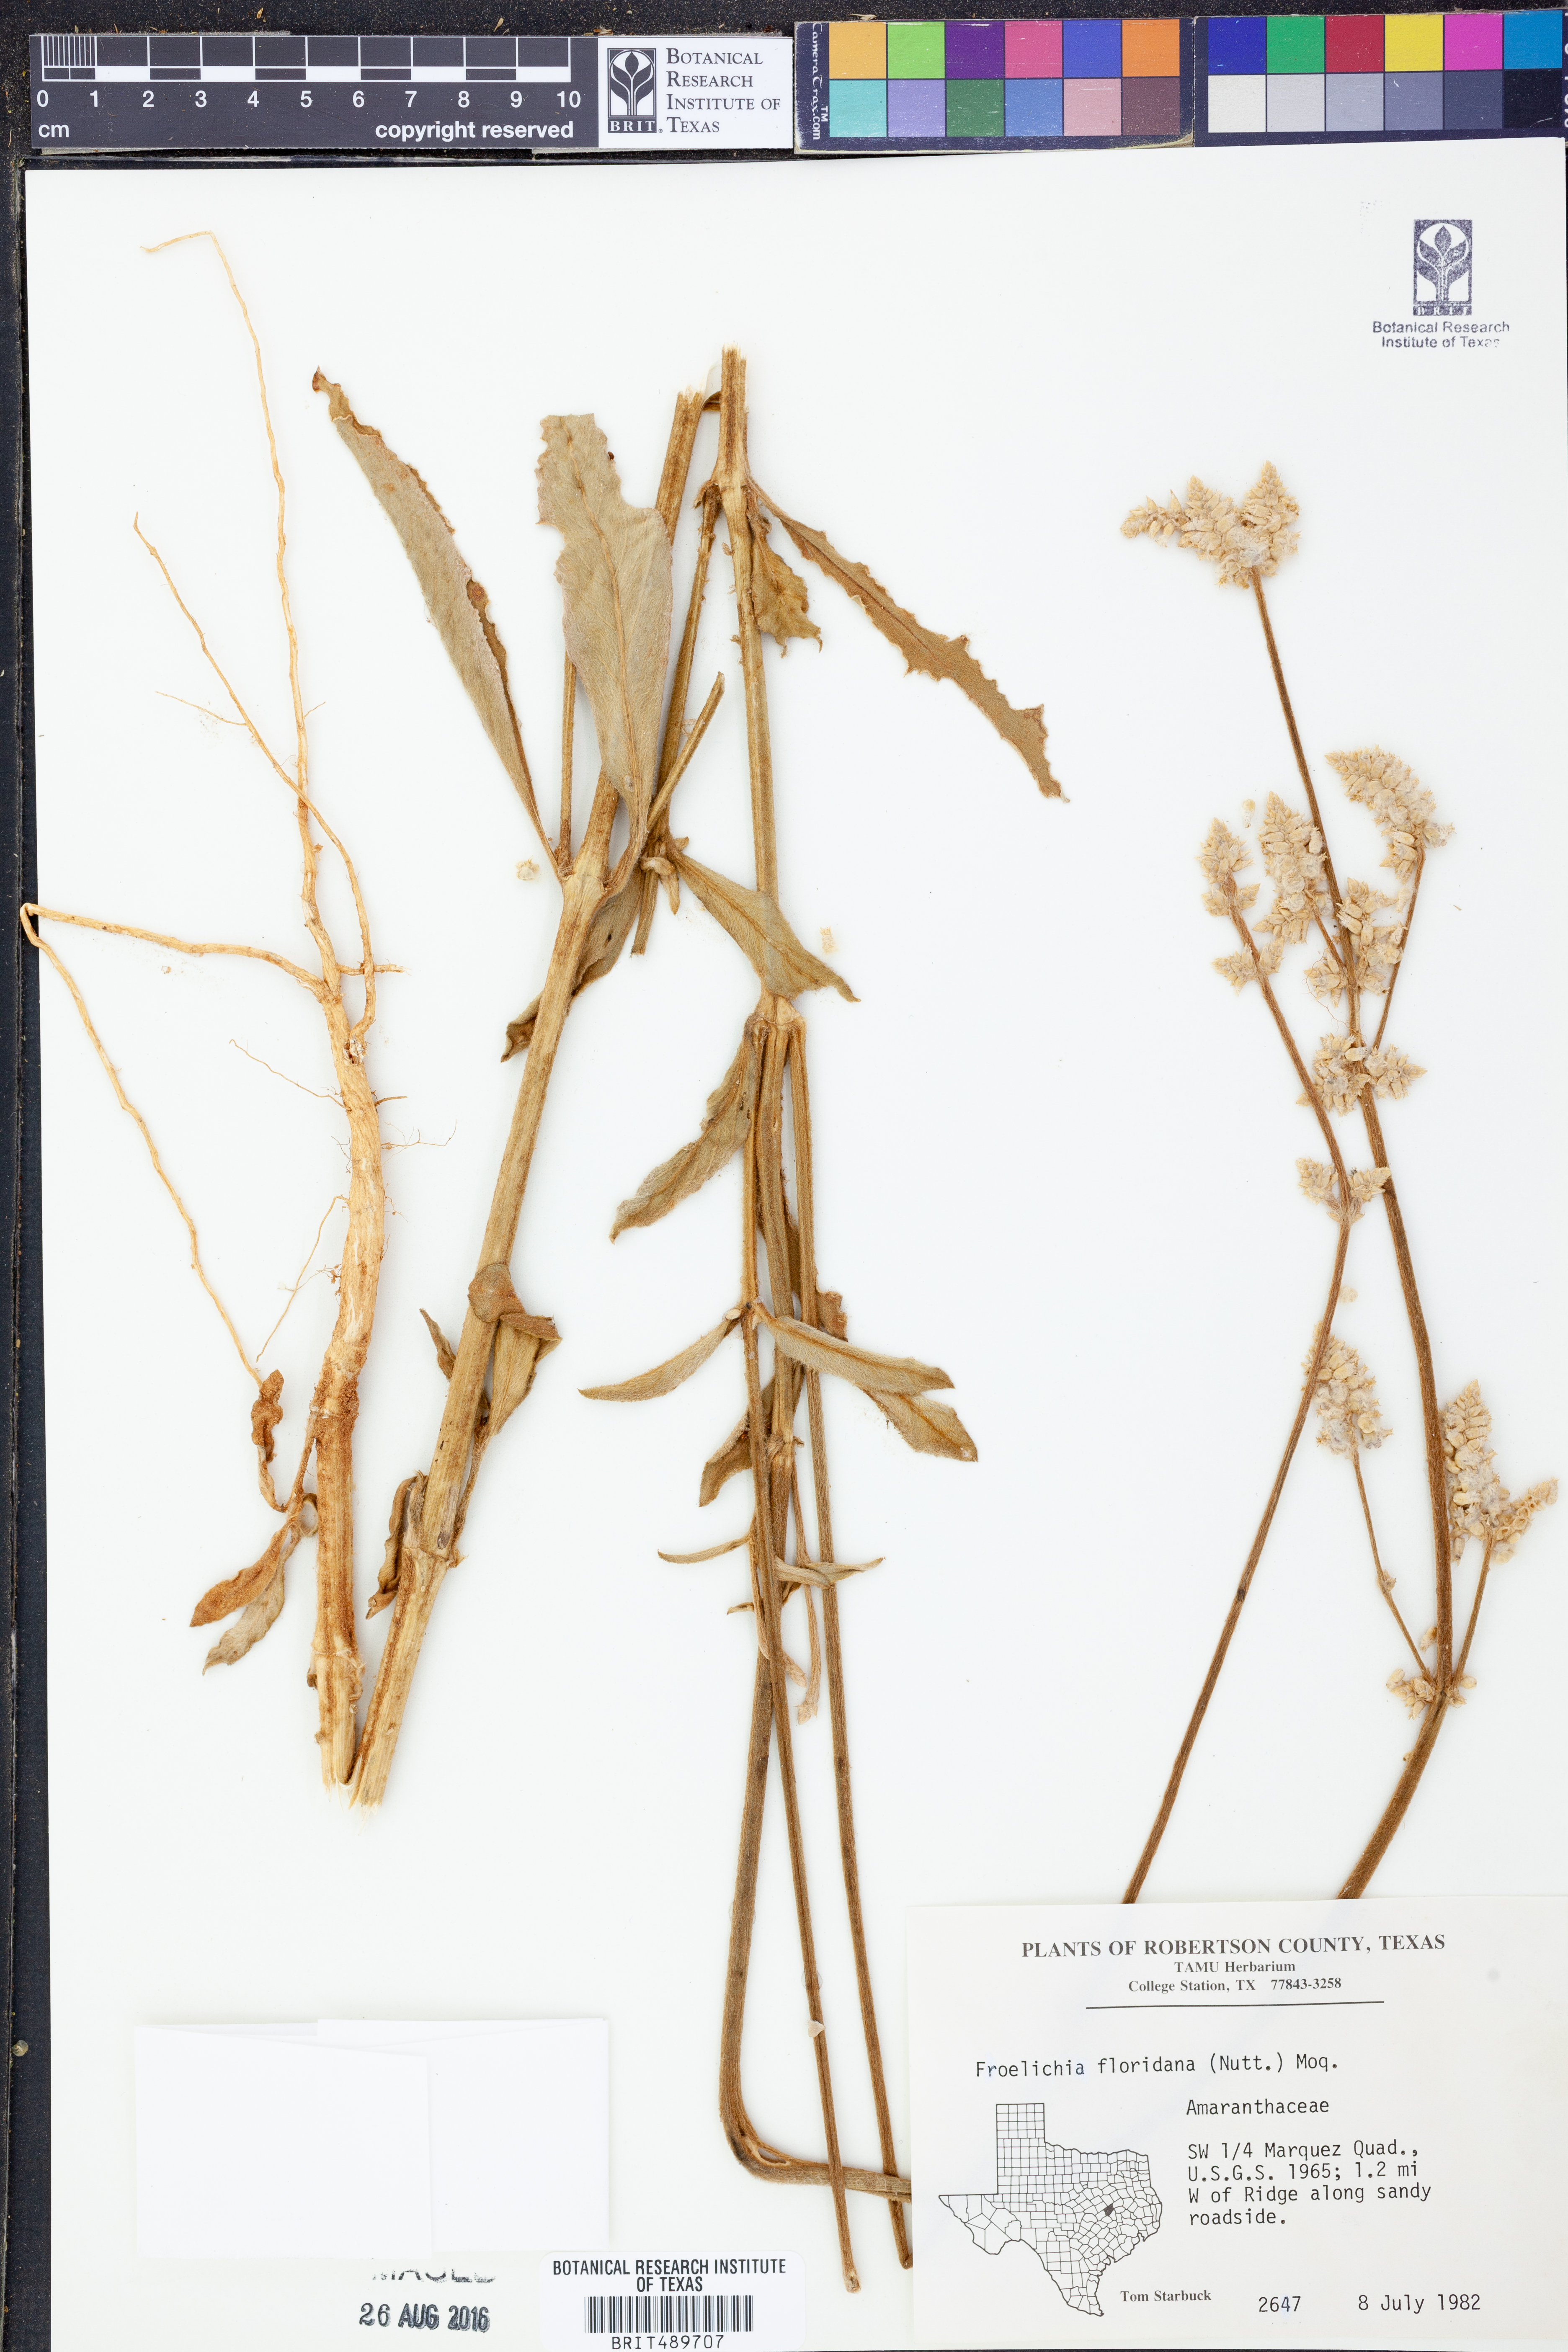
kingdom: Plantae
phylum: Tracheophyta
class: Magnoliopsida
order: Caryophyllales
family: Amaranthaceae
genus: Froelichia
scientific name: Froelichia floridana
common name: Florida snake-cotton
